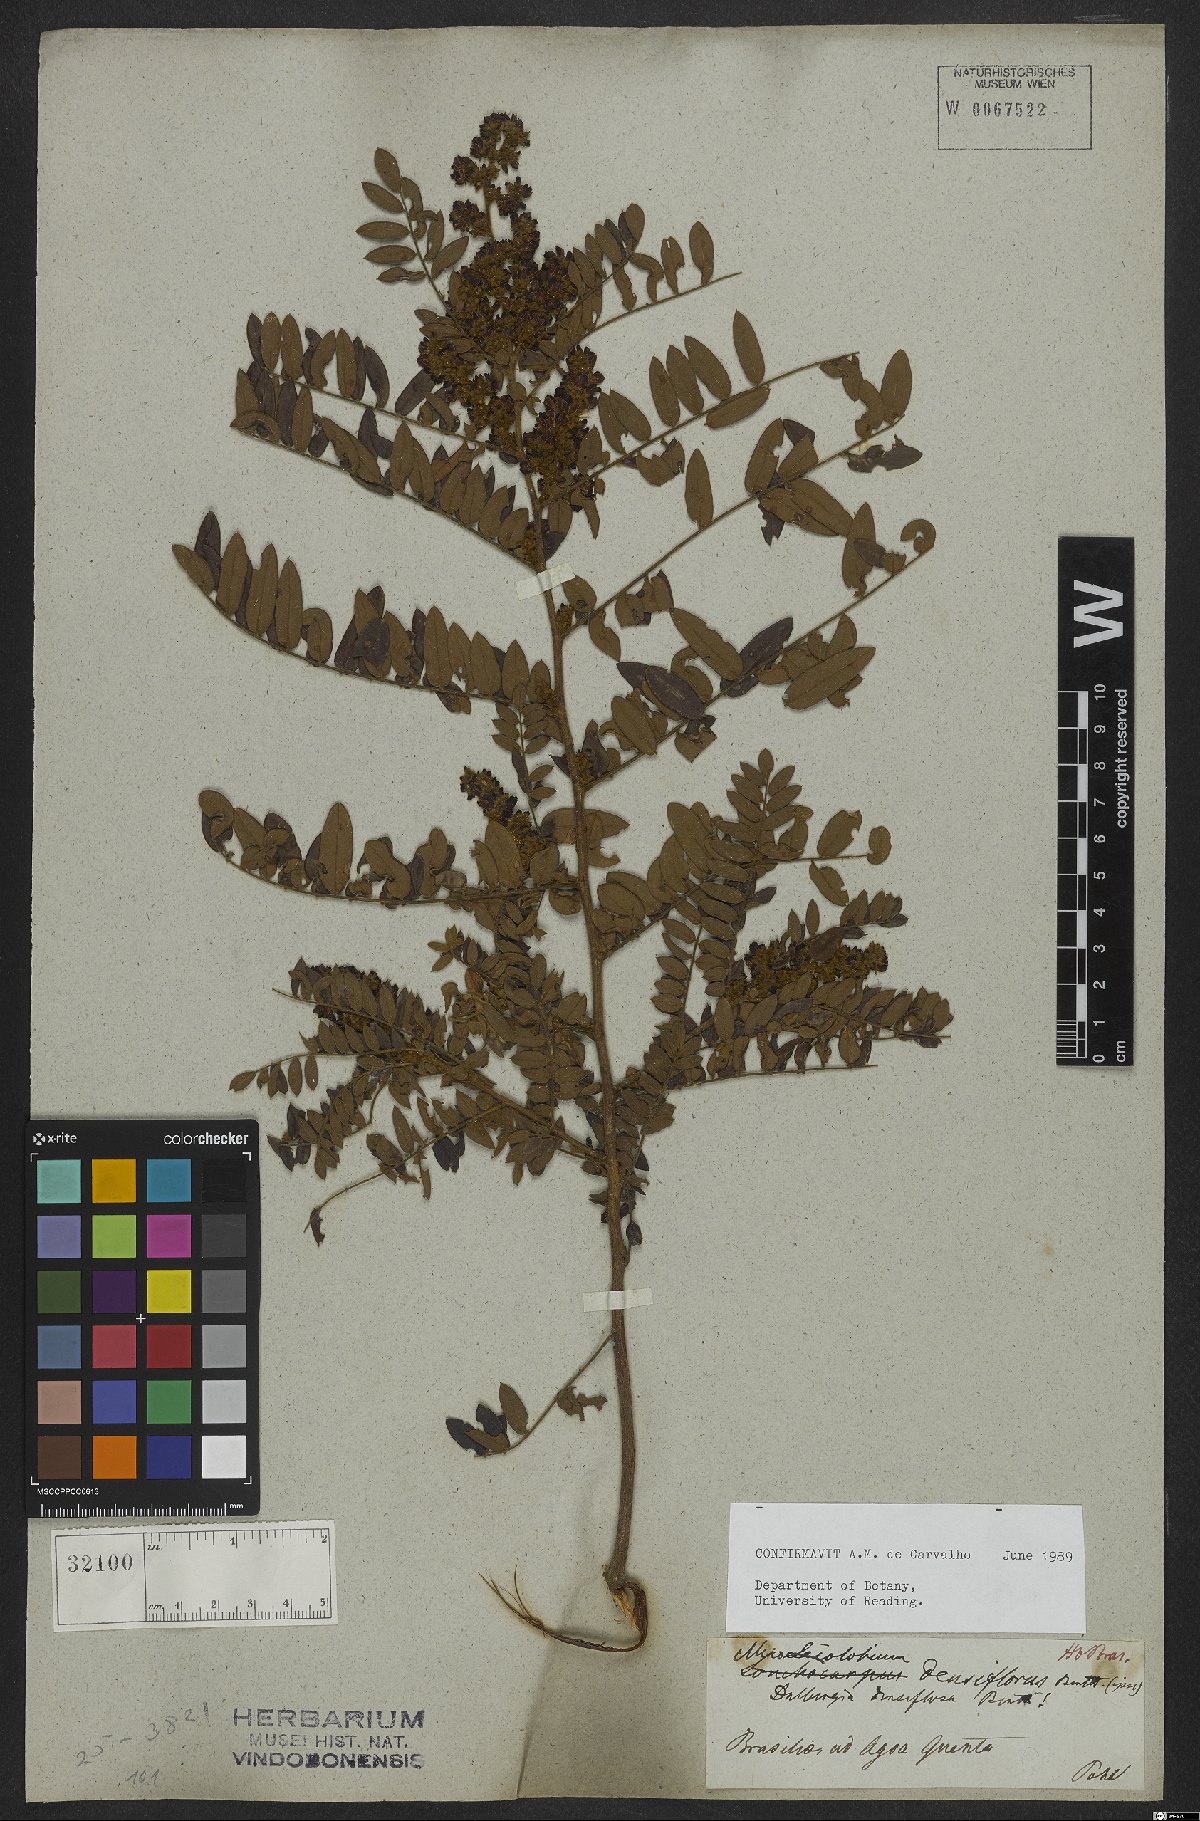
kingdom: Plantae
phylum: Tracheophyta
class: Magnoliopsida
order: Fabales
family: Fabaceae
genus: Dalbergia
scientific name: Dalbergia densiflora
